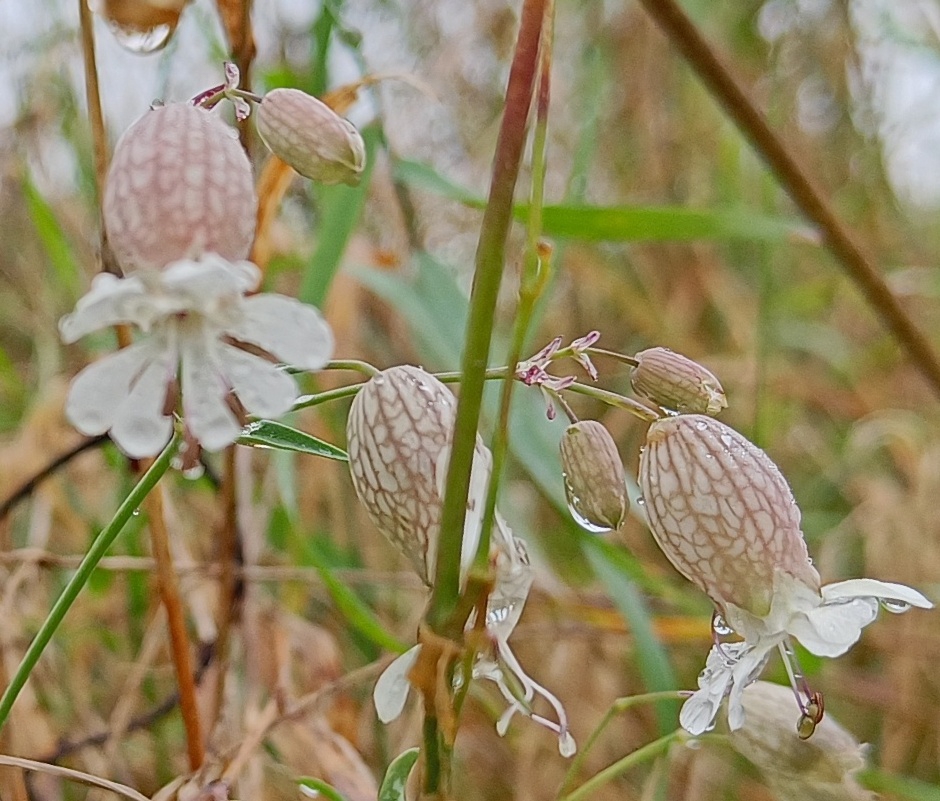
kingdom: Plantae
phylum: Tracheophyta
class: Magnoliopsida
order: Caryophyllales
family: Caryophyllaceae
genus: Silene
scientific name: Silene vulgaris
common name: Blæresmælde
